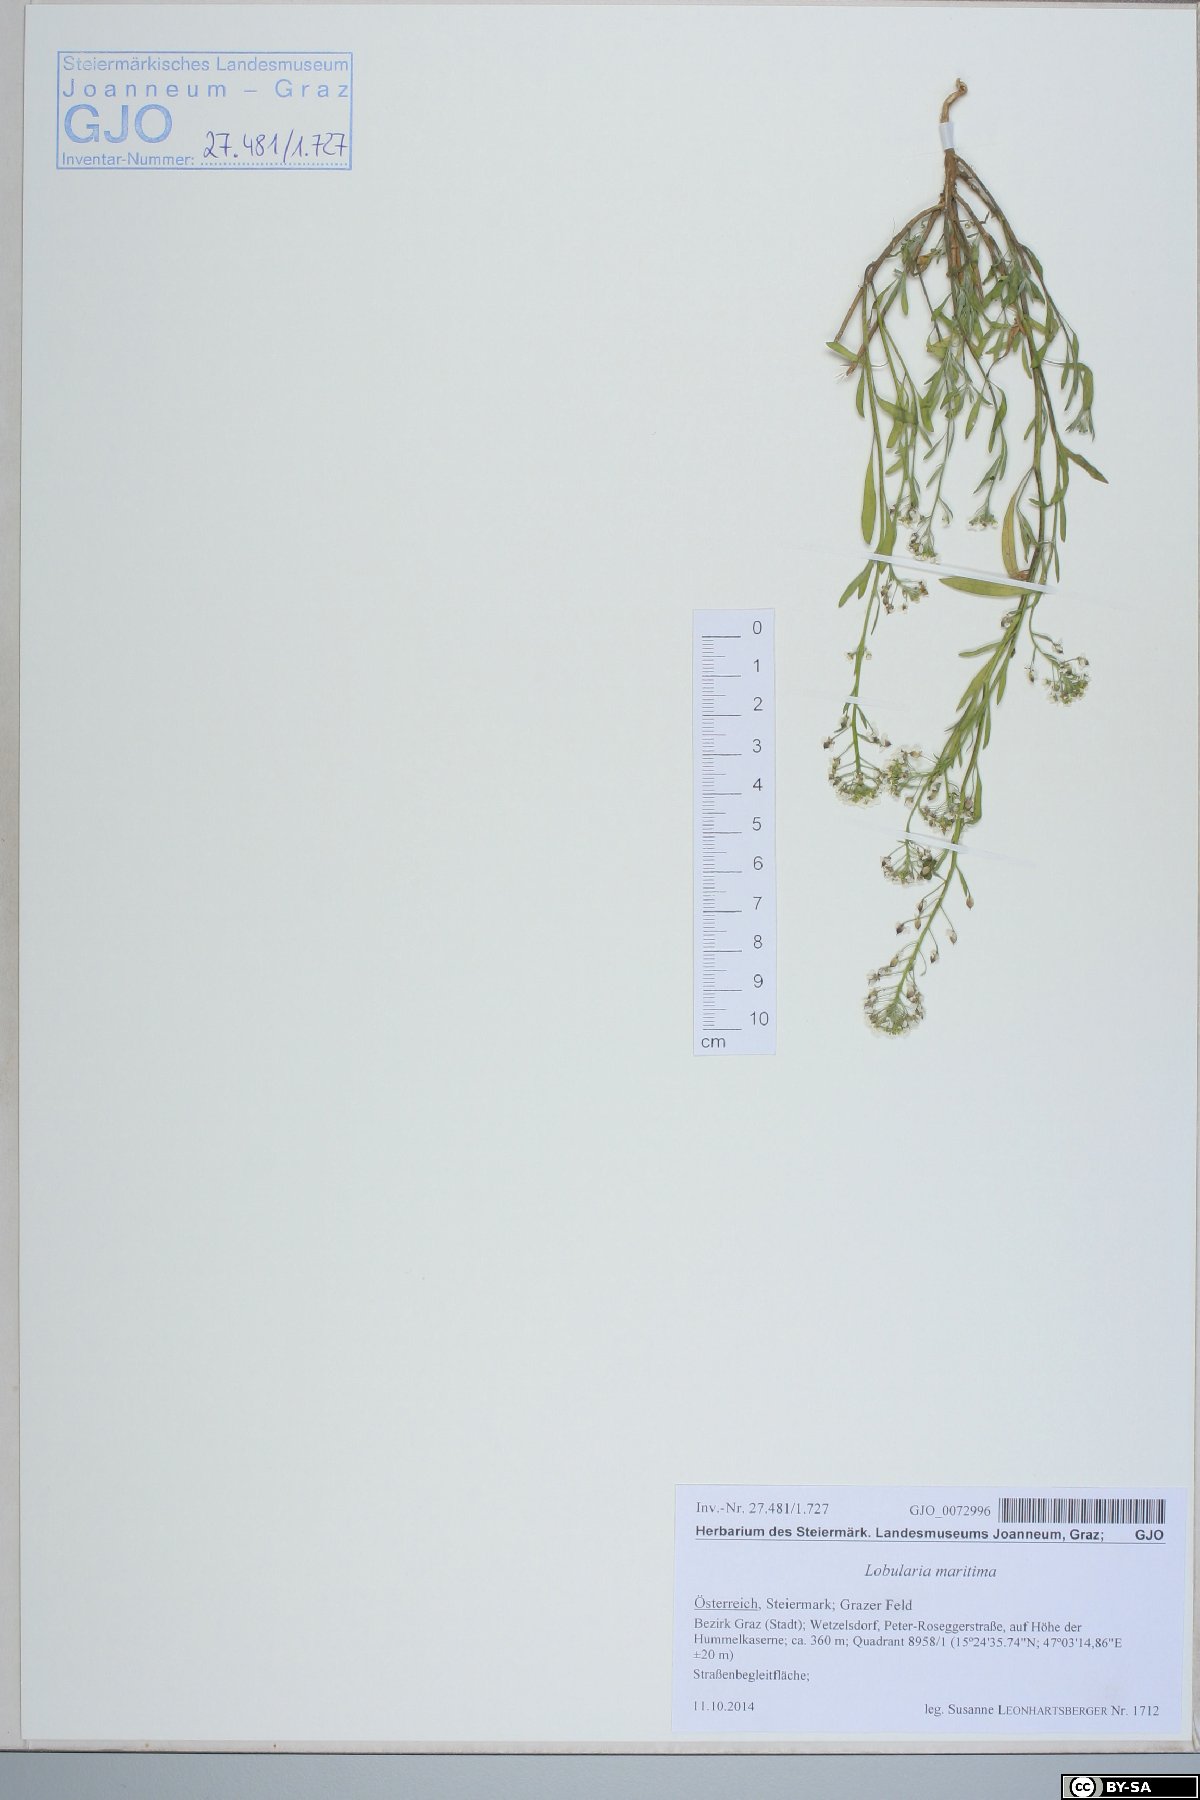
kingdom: Plantae
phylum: Tracheophyta
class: Magnoliopsida
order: Brassicales
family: Brassicaceae
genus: Lobularia
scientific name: Lobularia maritima
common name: Sweet alison
